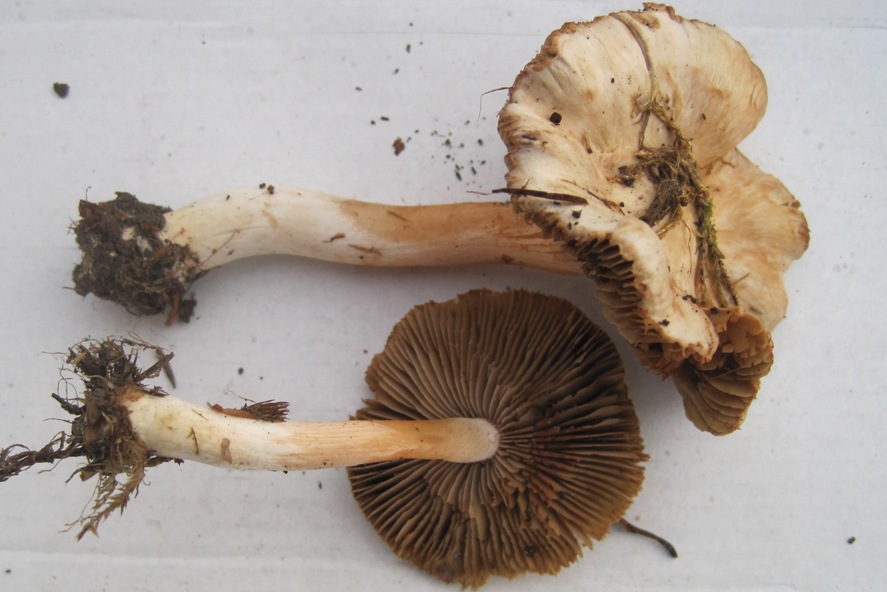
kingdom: Fungi
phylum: Basidiomycota
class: Agaricomycetes
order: Agaricales
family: Inocybaceae
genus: Inocybe
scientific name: Inocybe
